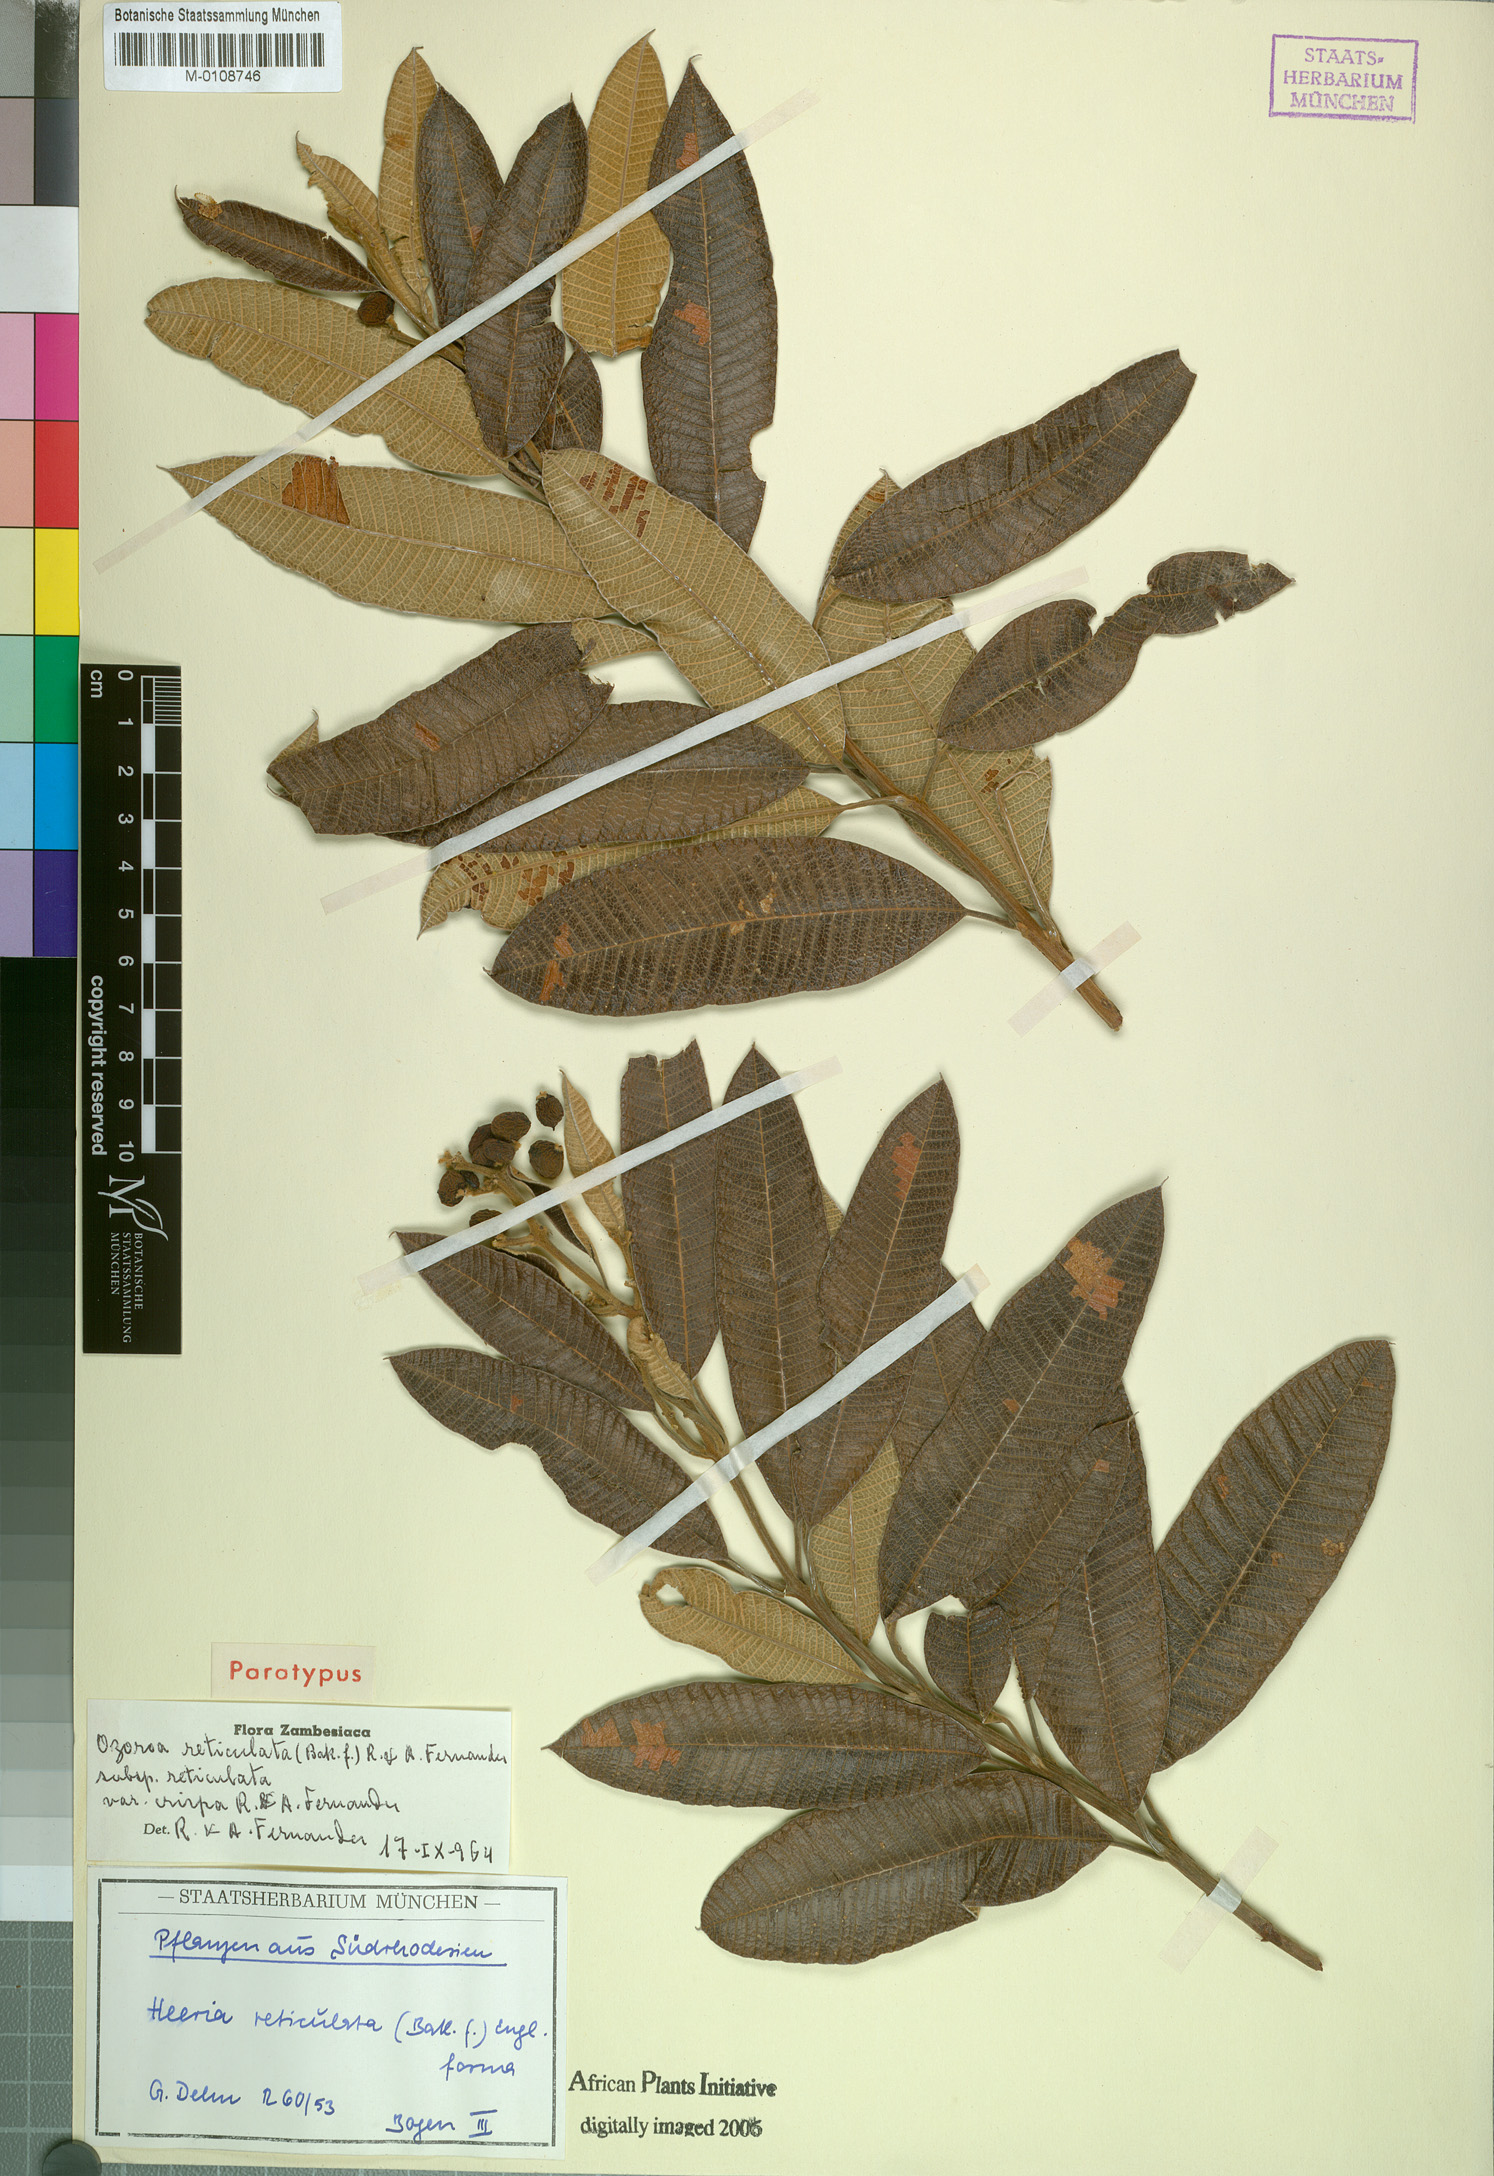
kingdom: Plantae
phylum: Tracheophyta
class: Magnoliopsida
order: Sapindales
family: Anacardiaceae
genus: Ozoroa
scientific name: Ozoroa insignis
